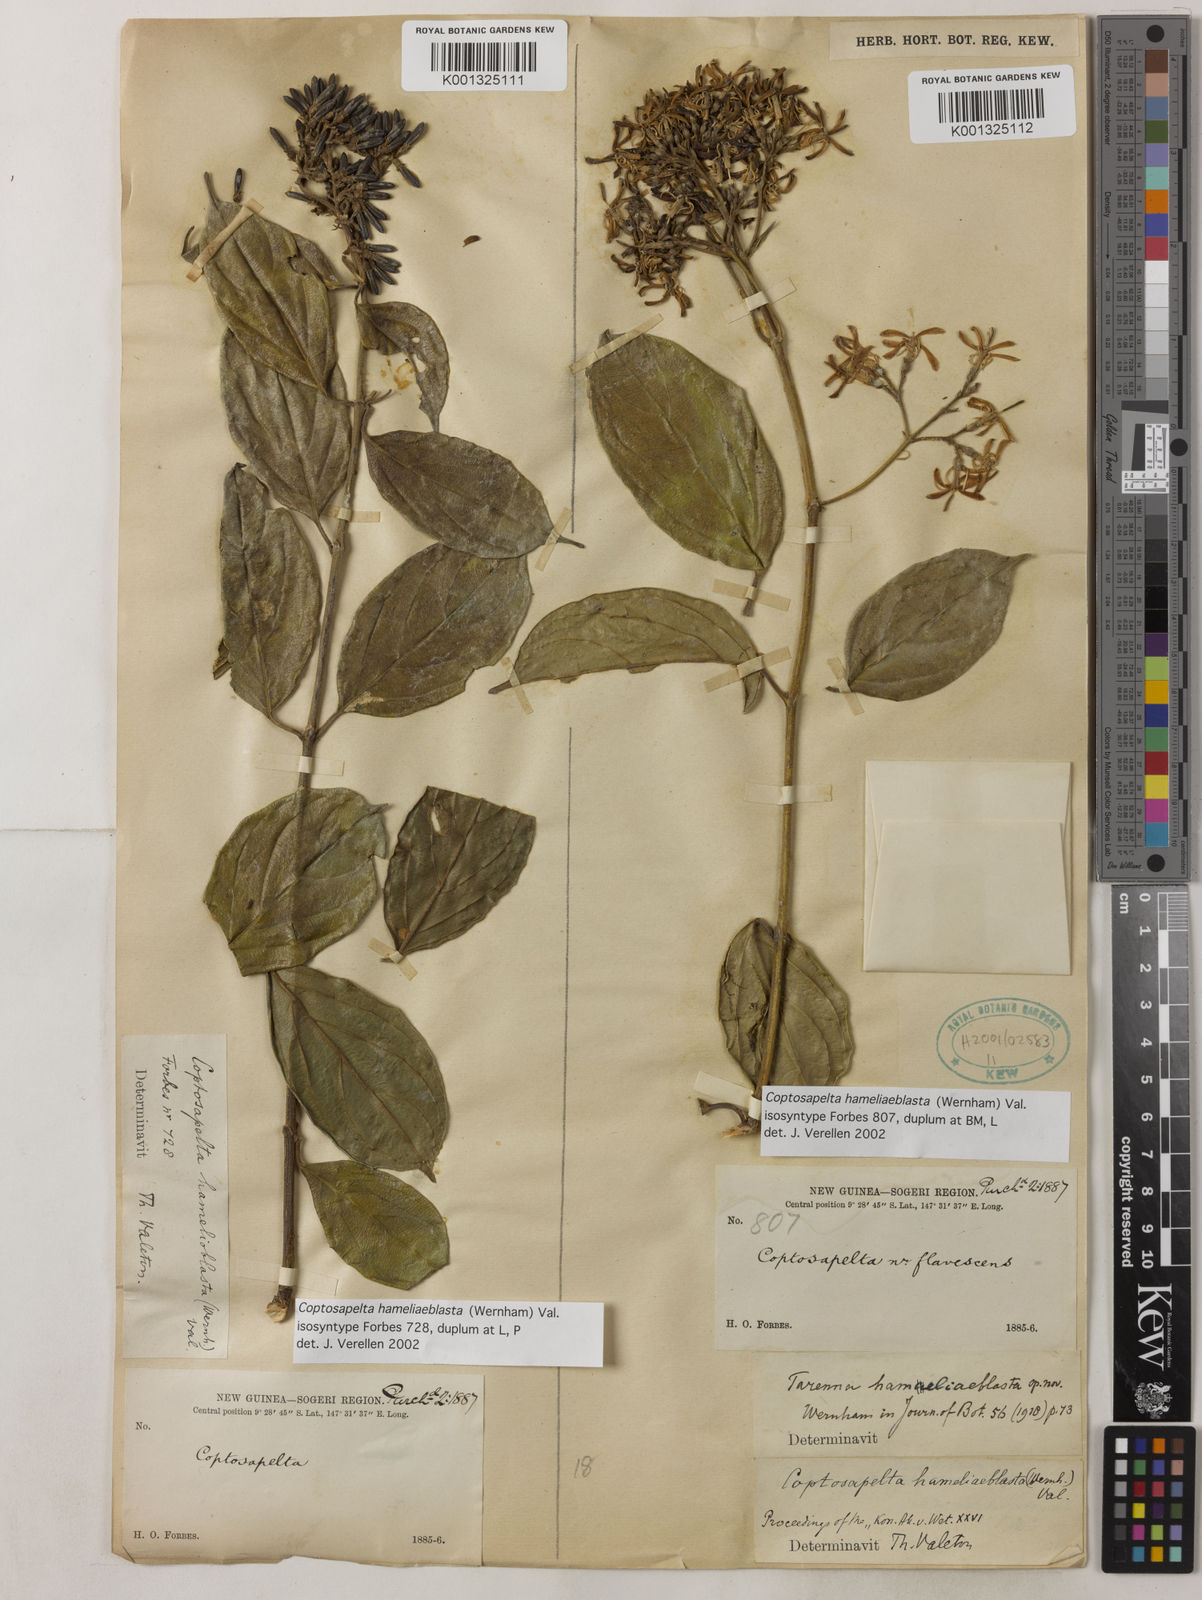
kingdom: Plantae
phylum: Tracheophyta
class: Magnoliopsida
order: Gentianales
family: Rubiaceae
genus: Coptosapelta
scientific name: Coptosapelta
